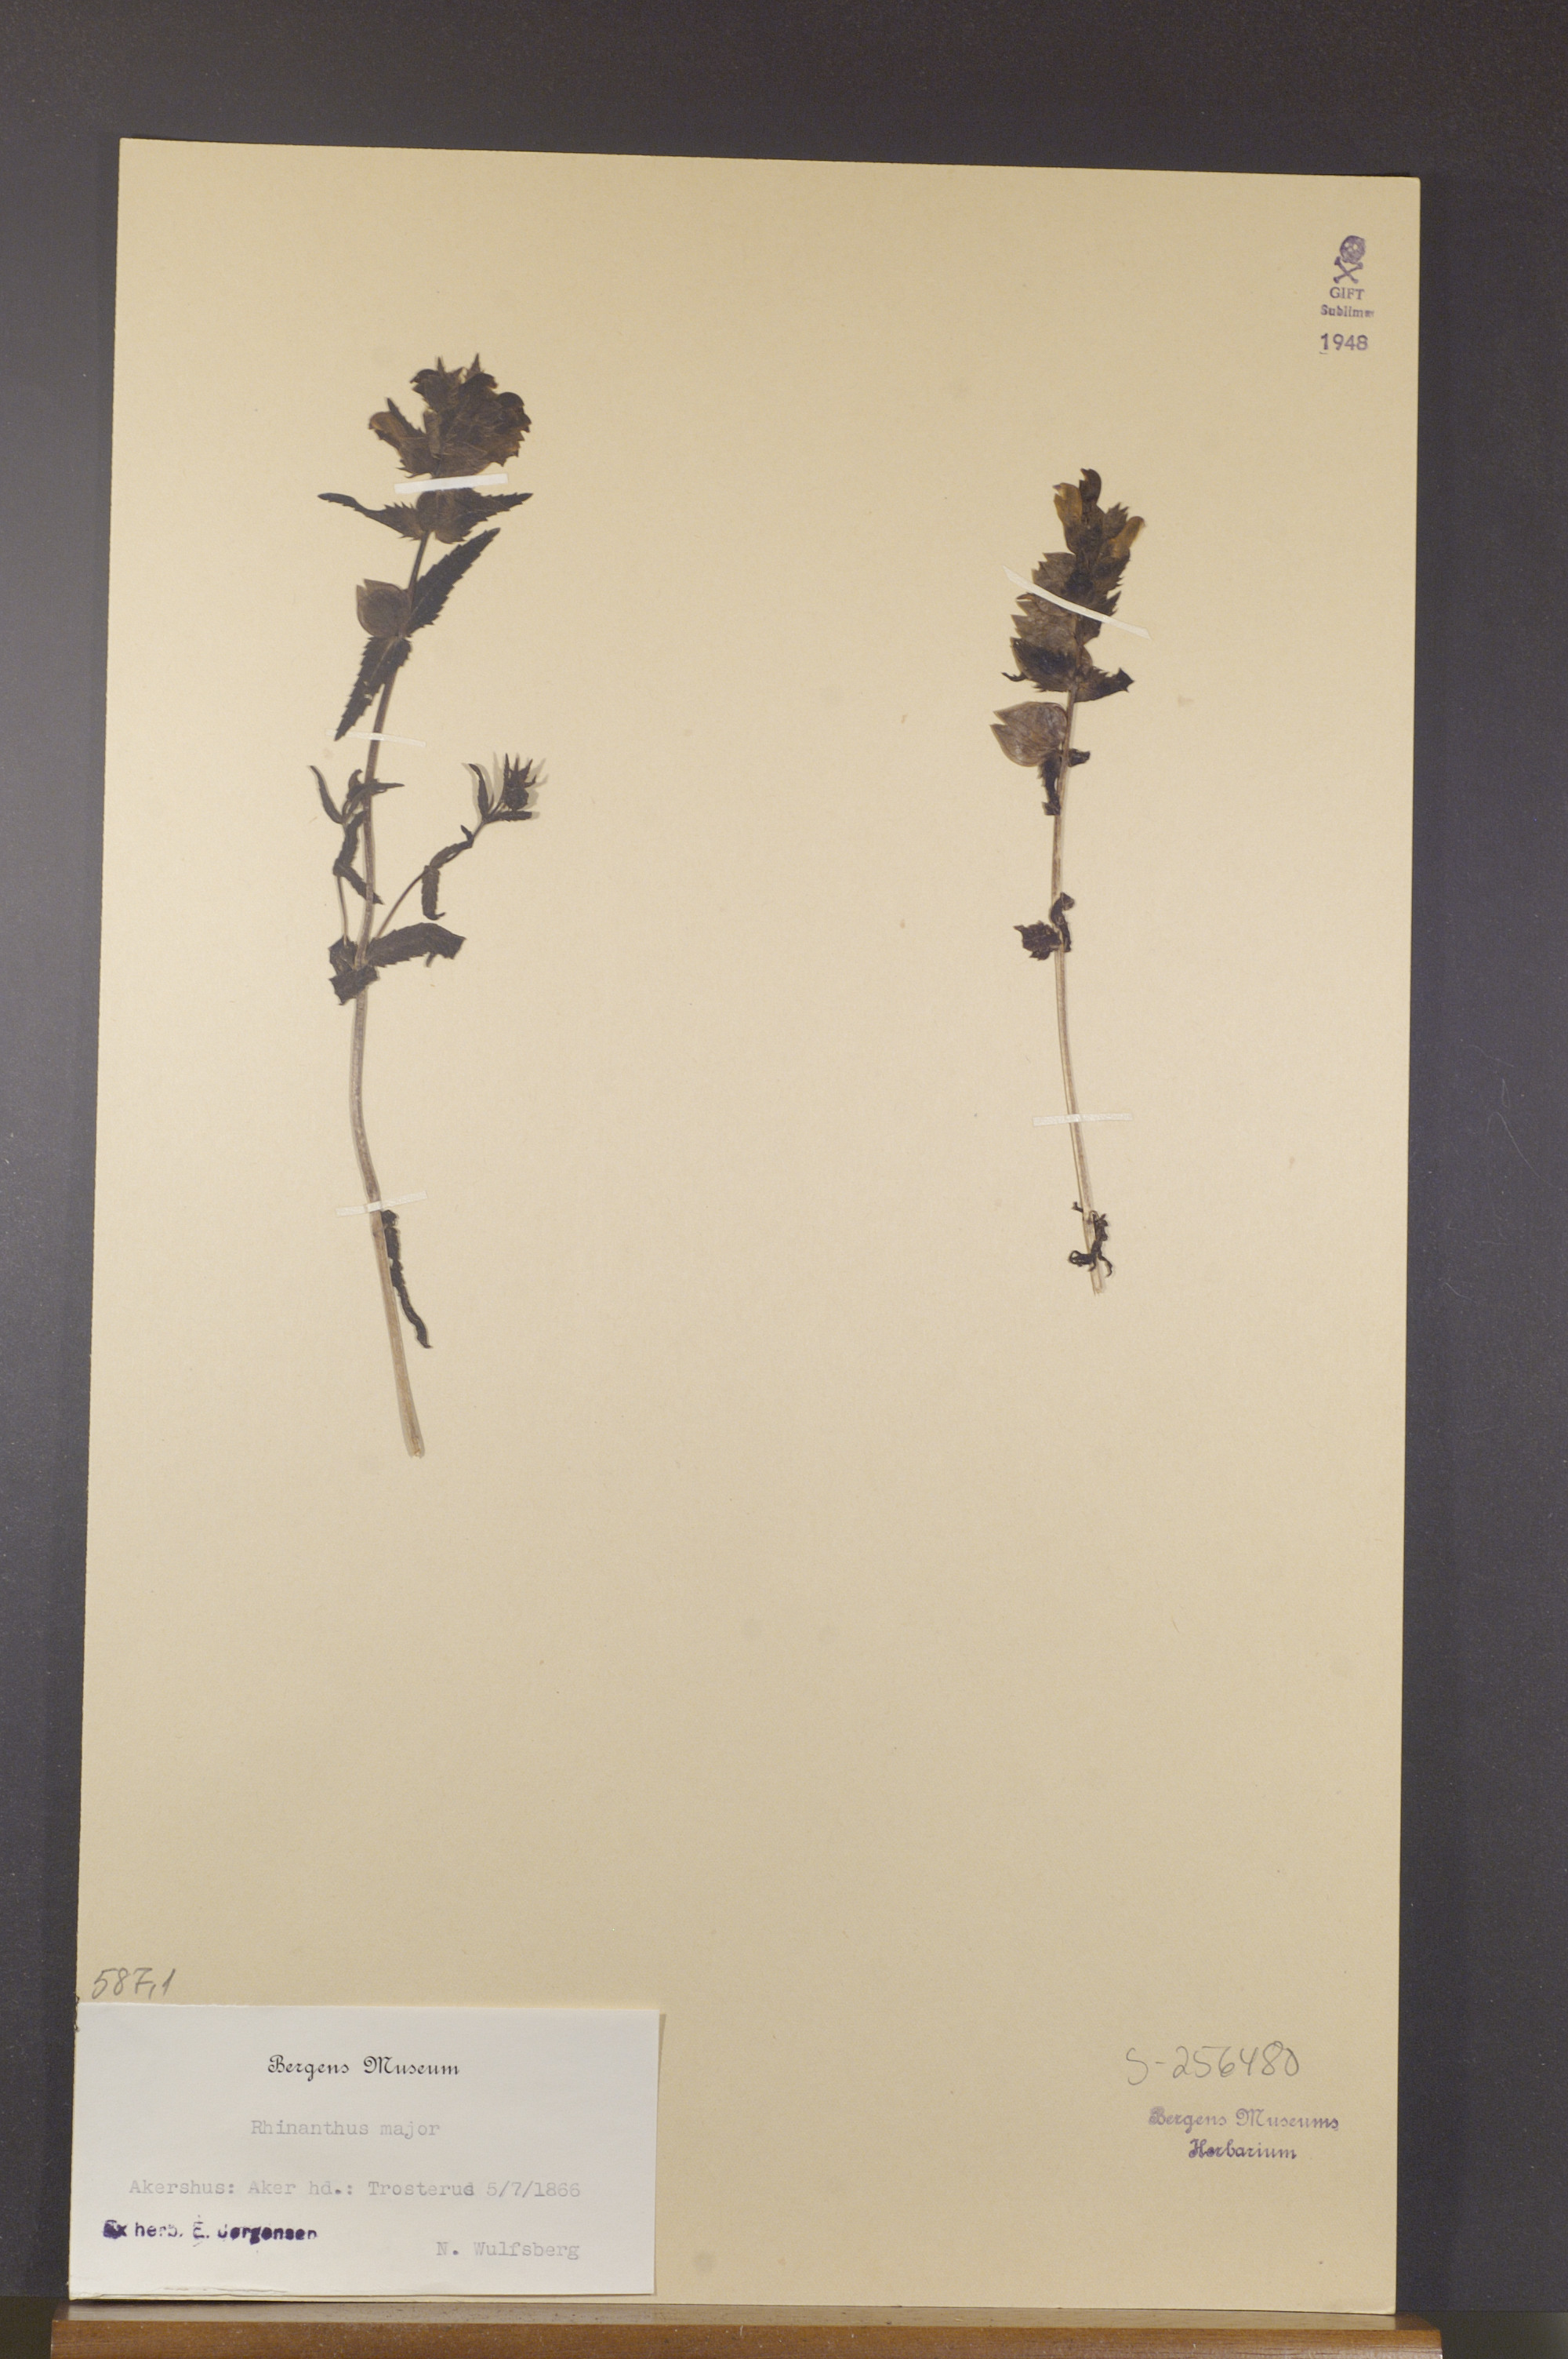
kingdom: Plantae
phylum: Tracheophyta
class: Magnoliopsida
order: Lamiales
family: Orobanchaceae
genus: Rhinanthus
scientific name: Rhinanthus serotinus
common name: Late-flowering yellow rattle
